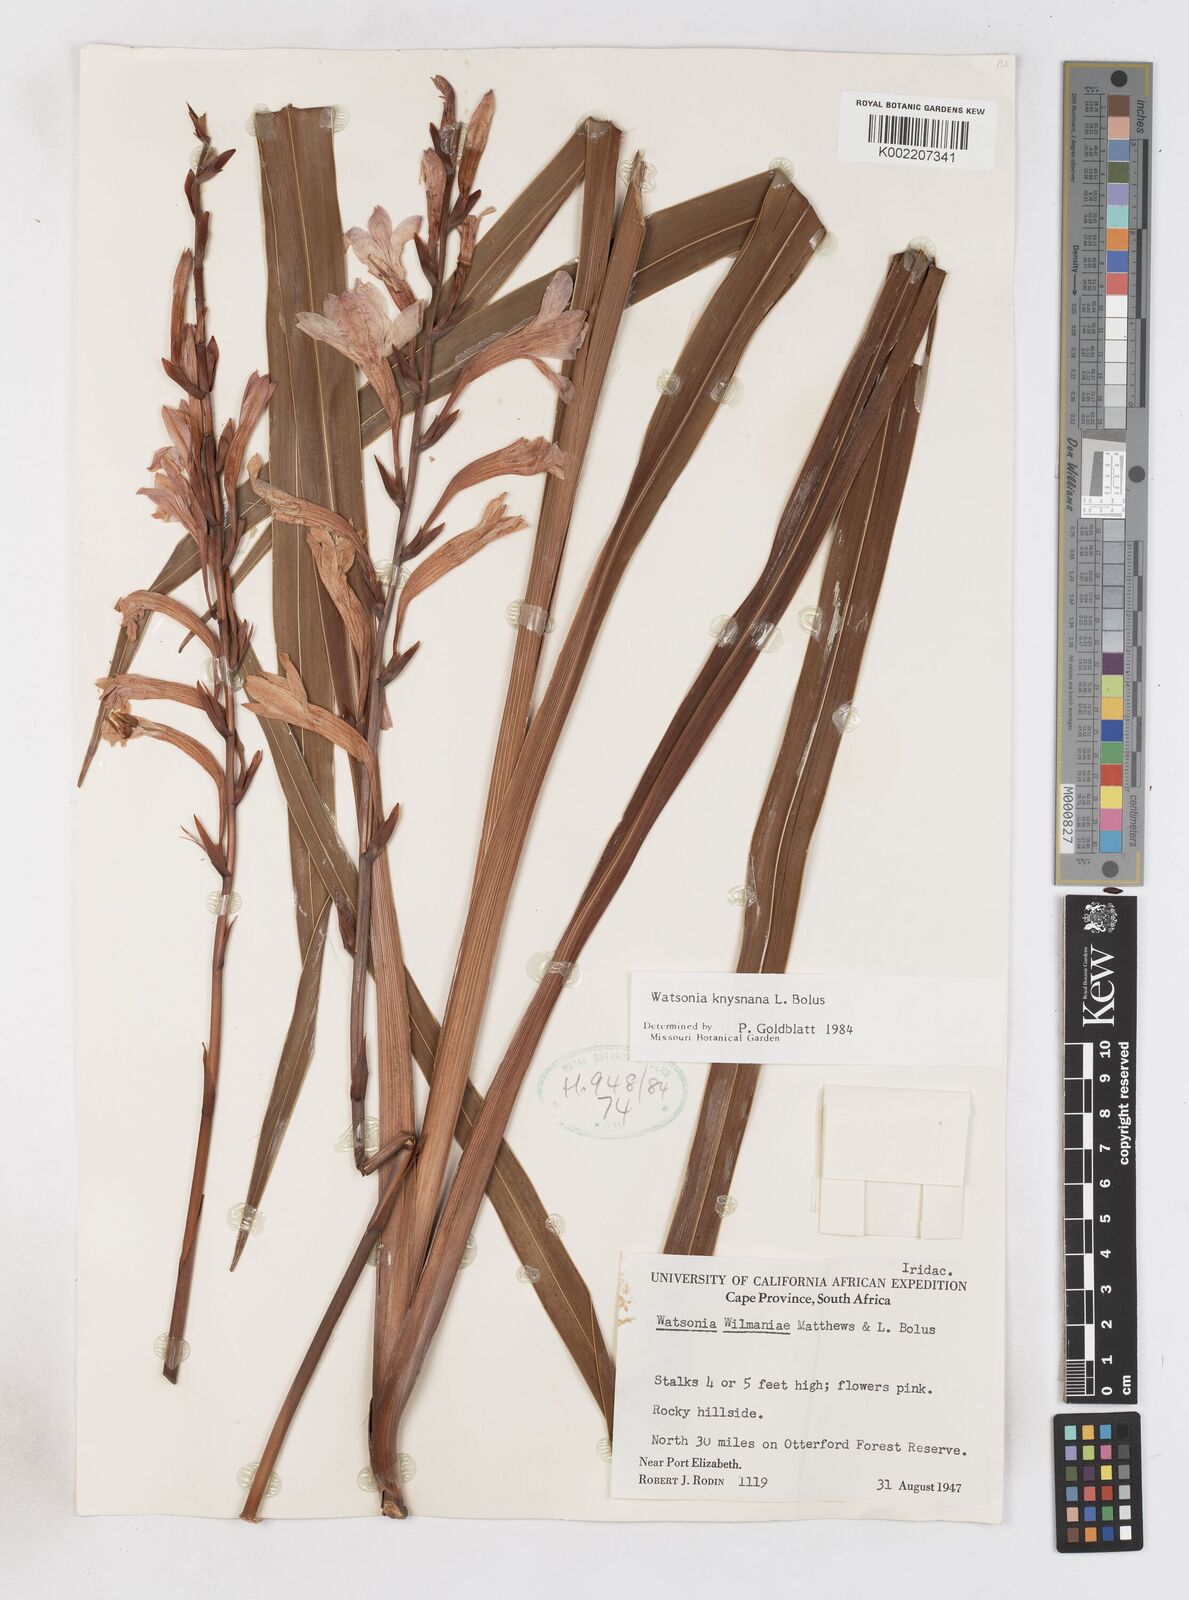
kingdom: Plantae
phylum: Tracheophyta
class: Liliopsida
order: Asparagales
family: Iridaceae
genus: Watsonia
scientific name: Watsonia knysnana
